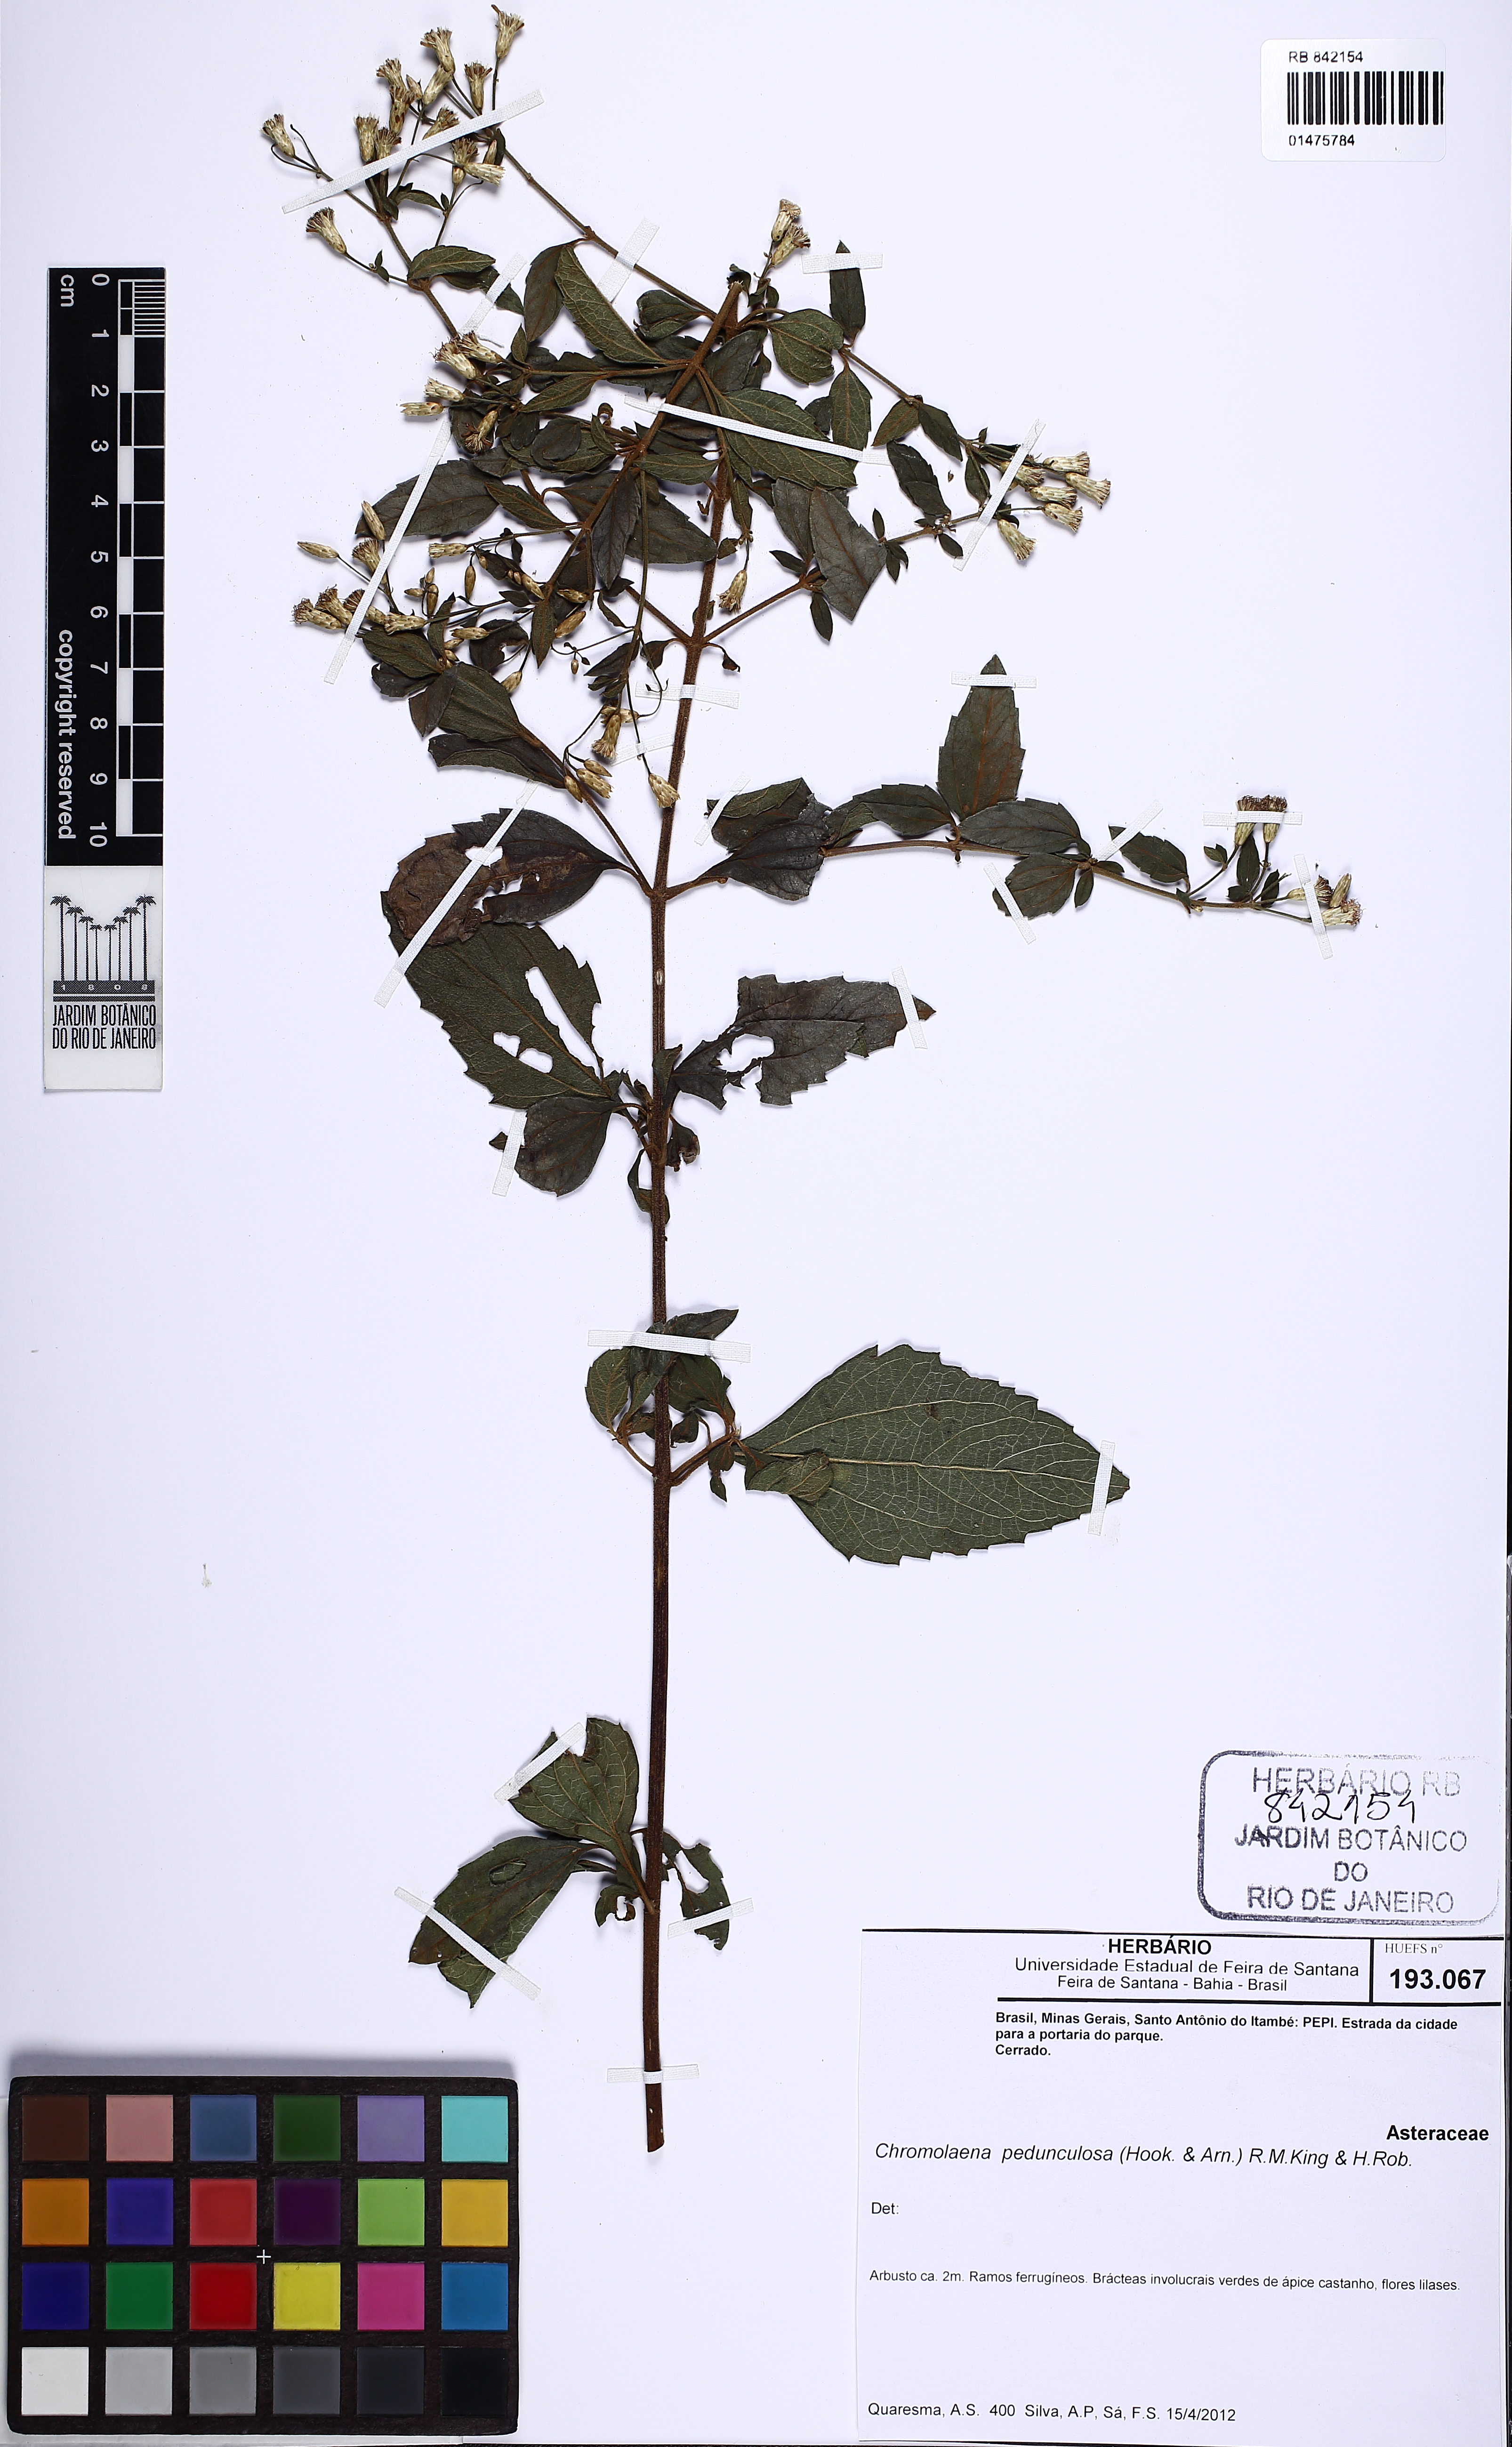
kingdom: Plantae
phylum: Tracheophyta
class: Magnoliopsida
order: Asterales
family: Asteraceae
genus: Chromolaena
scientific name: Chromolaena pedunculosa
